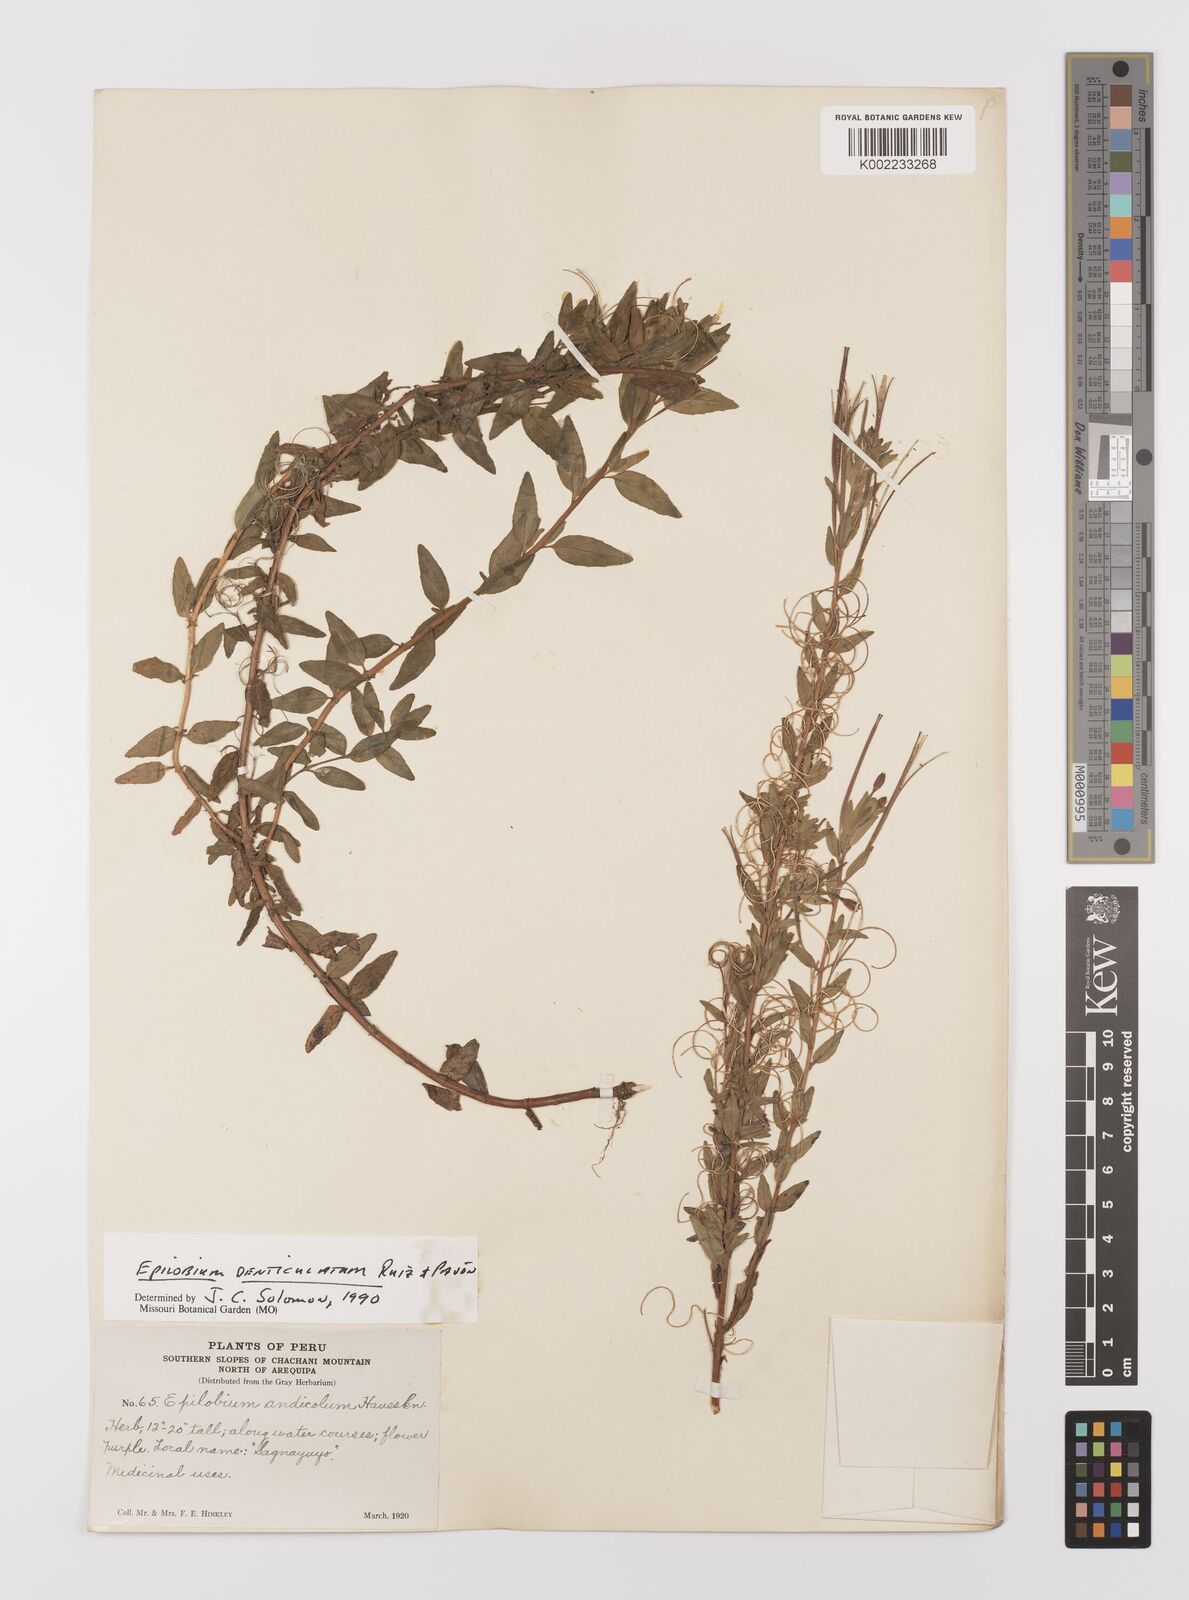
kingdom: Plantae
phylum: Tracheophyta
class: Magnoliopsida
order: Myrtales
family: Onagraceae
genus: Epilobium
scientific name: Epilobium
